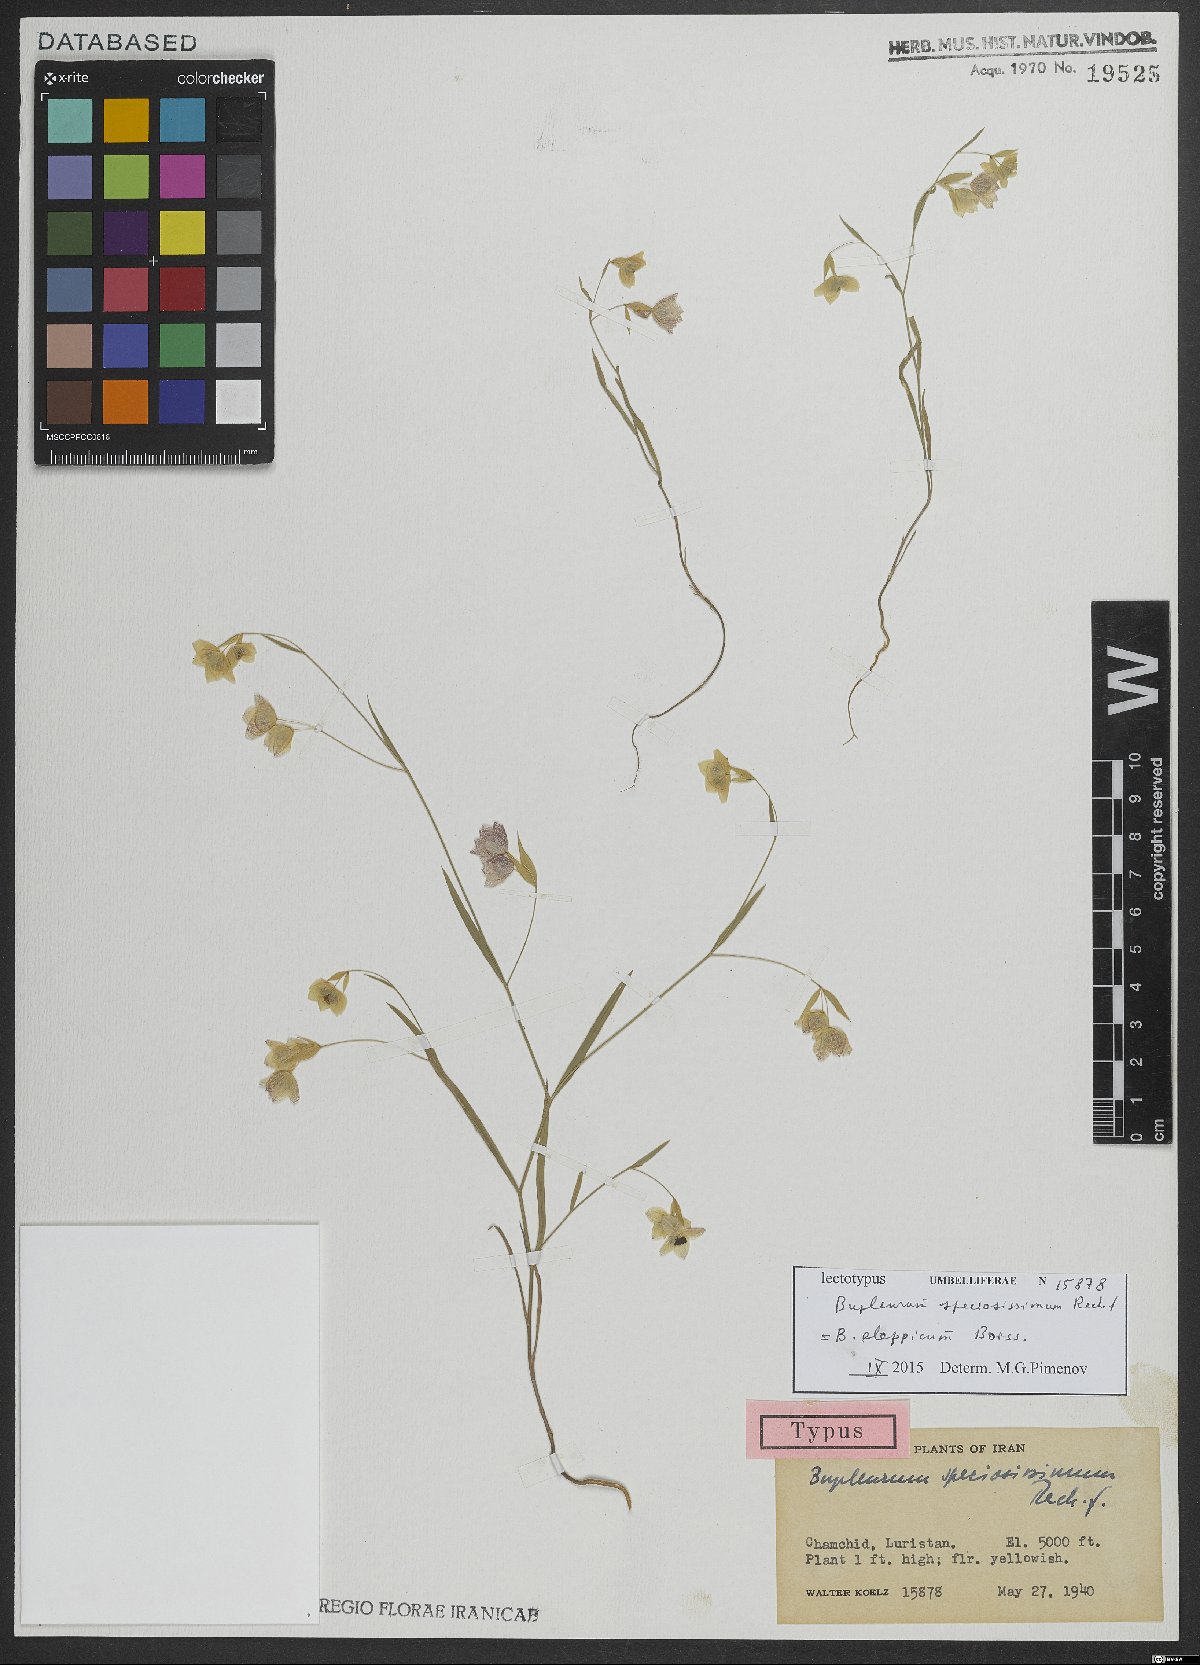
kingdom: Plantae
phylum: Tracheophyta
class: Magnoliopsida
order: Apiales
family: Apiaceae
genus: Bupleurum
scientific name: Bupleurum aleppicum
